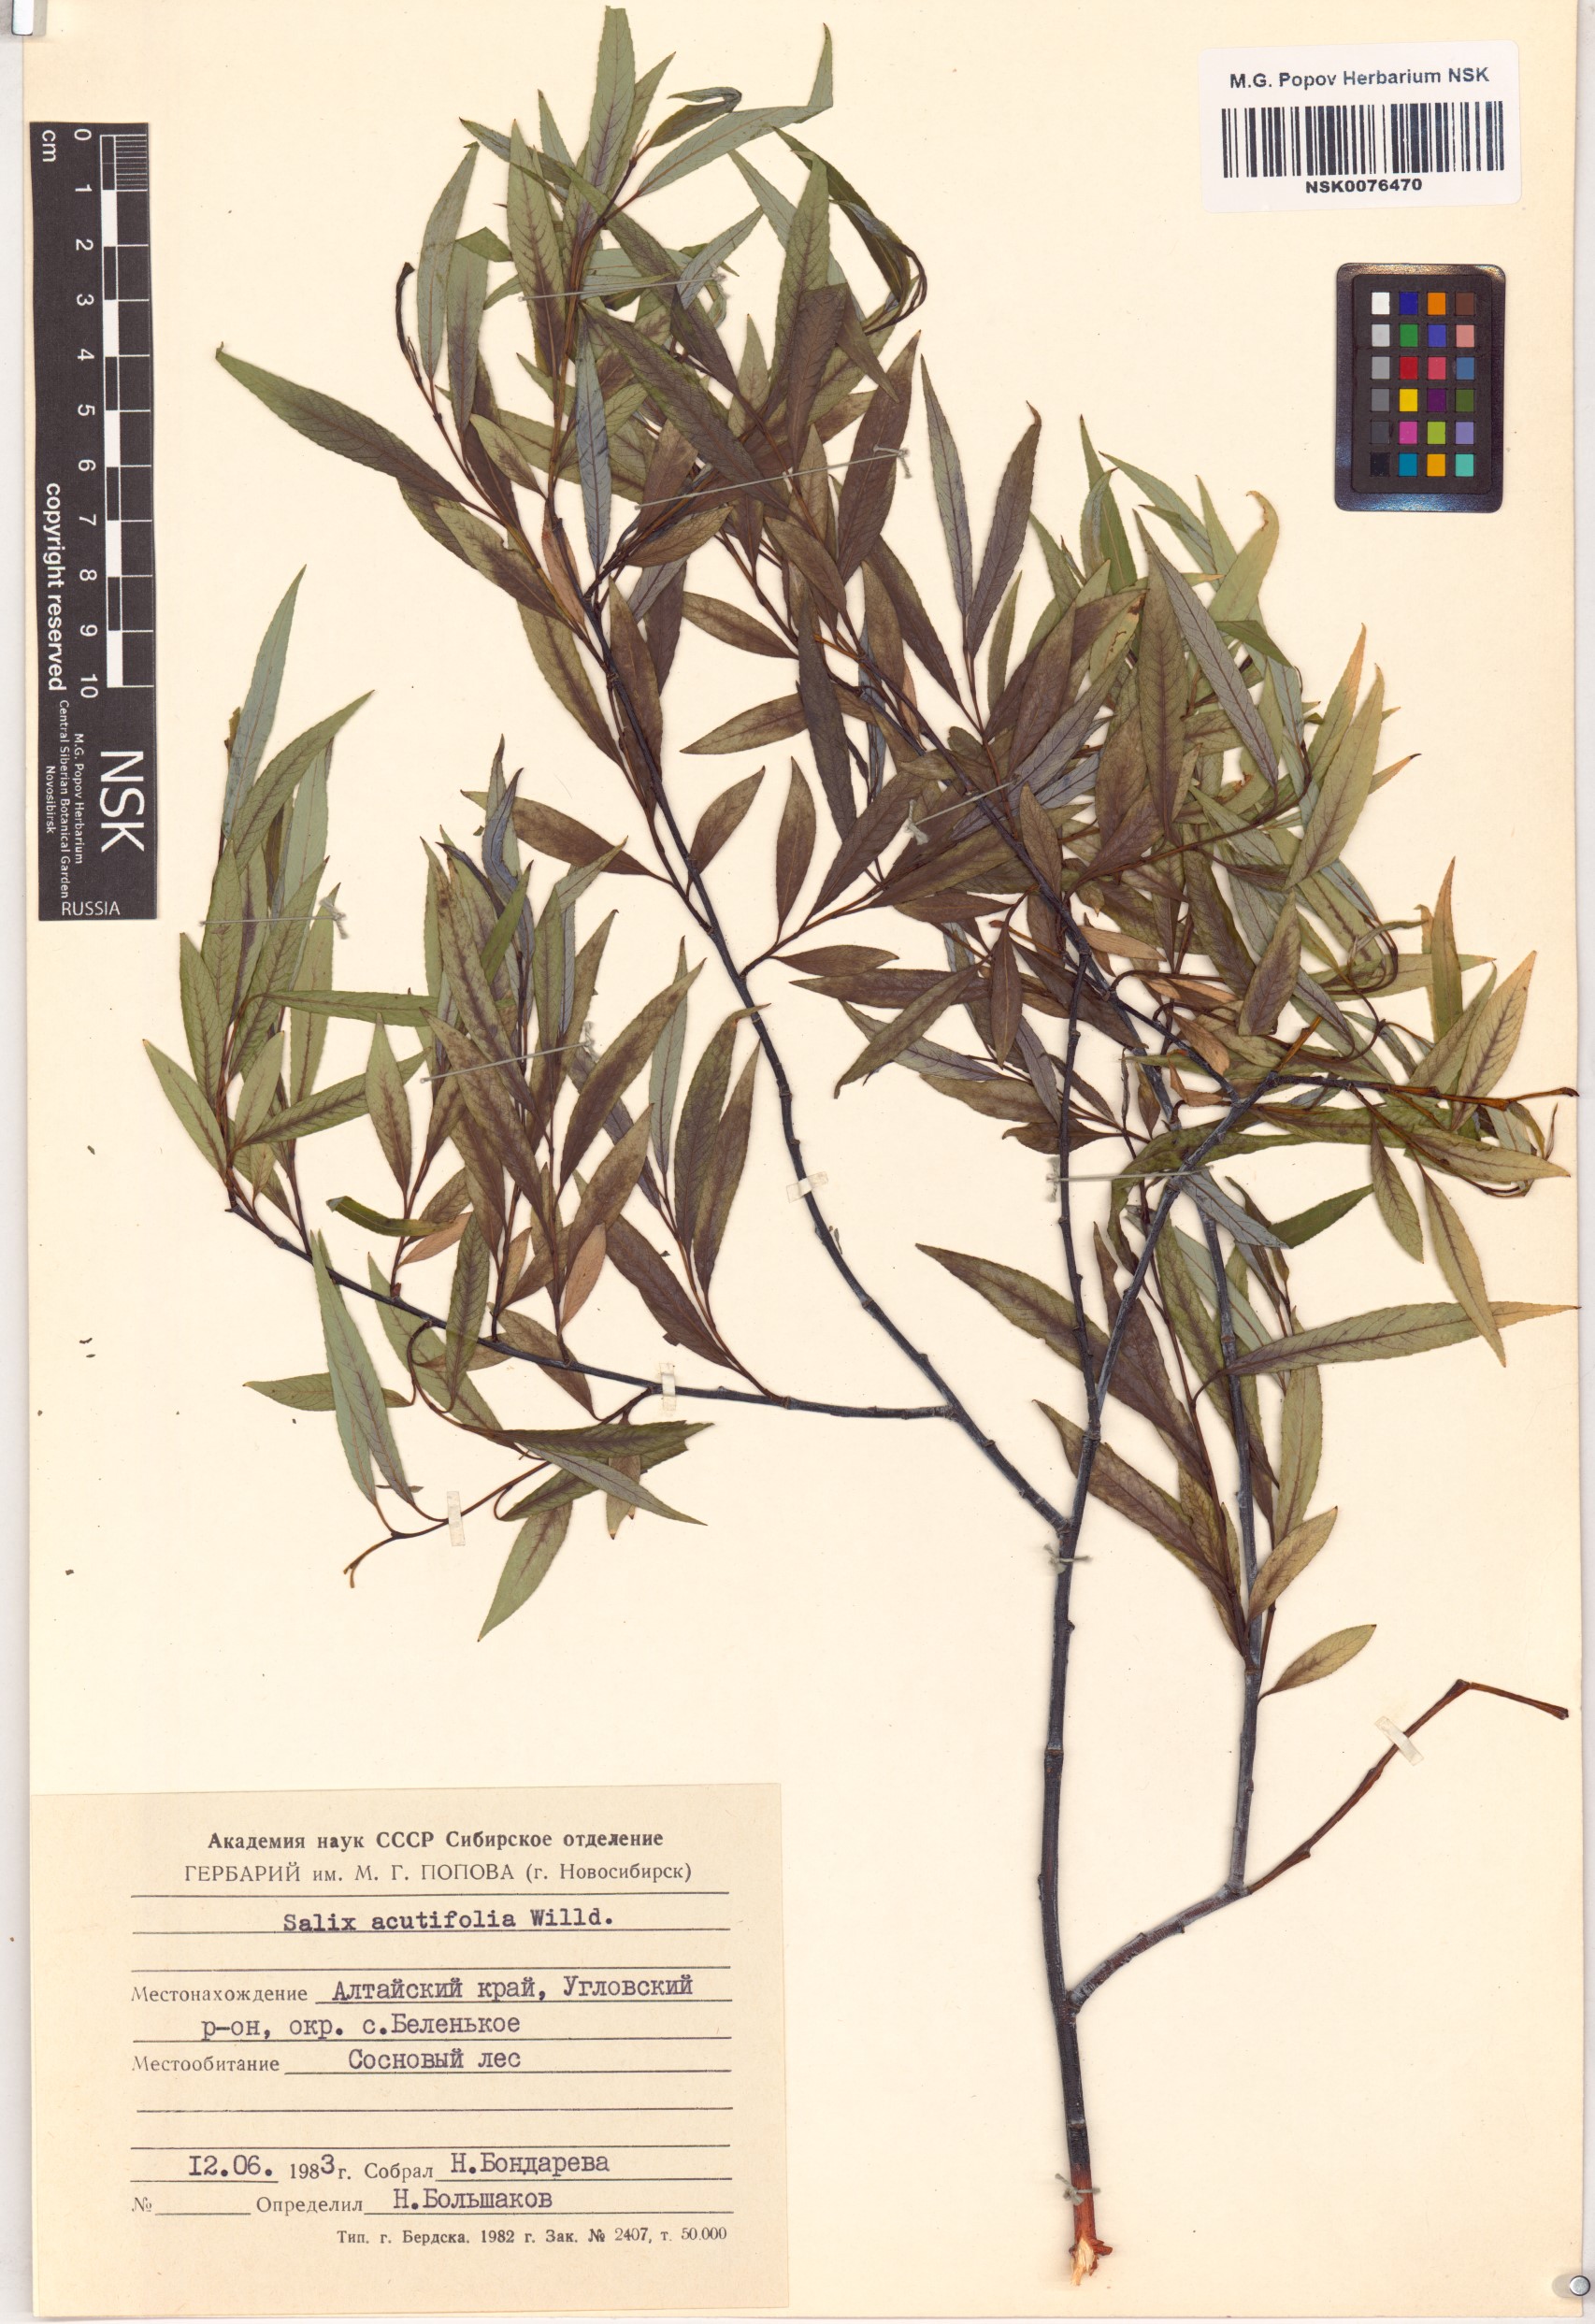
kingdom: Plantae
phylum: Tracheophyta
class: Magnoliopsida
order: Malpighiales
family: Salicaceae
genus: Salix
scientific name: Salix acutifolia
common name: Siberian violet-willow
